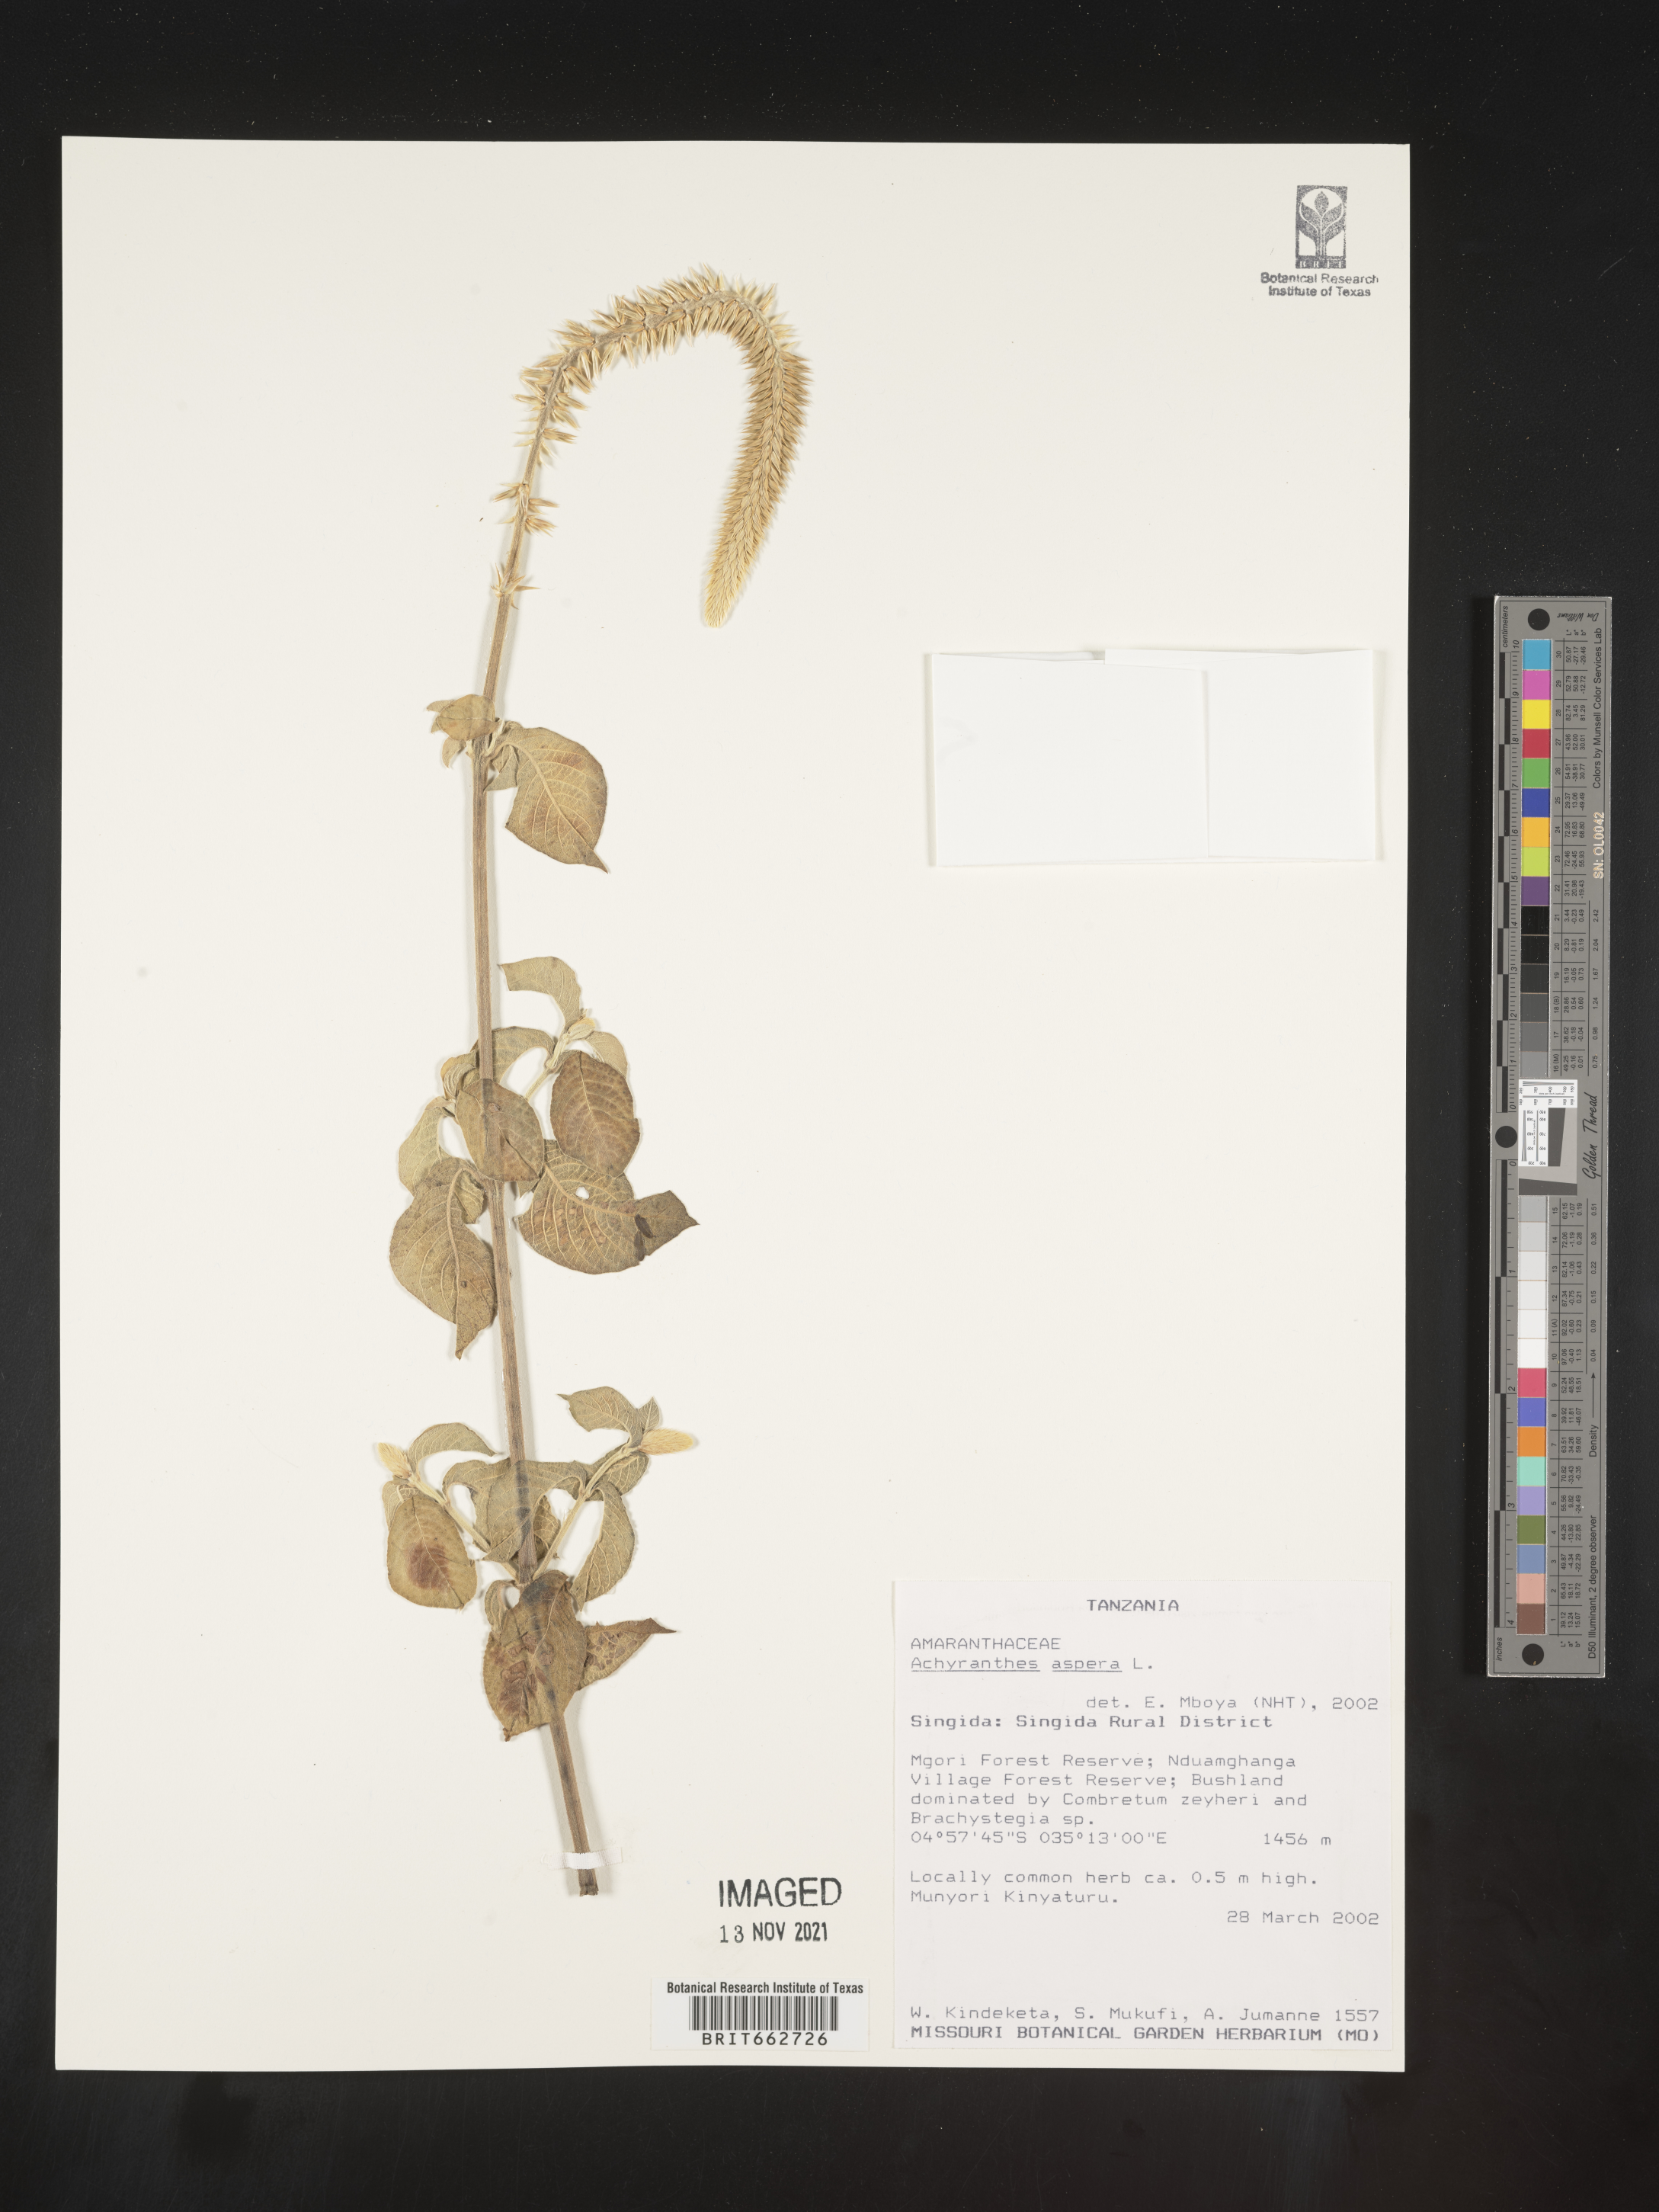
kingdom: Plantae
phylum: Tracheophyta
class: Magnoliopsida
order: Caryophyllales
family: Amaranthaceae
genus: Achyranthes
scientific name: Achyranthes
